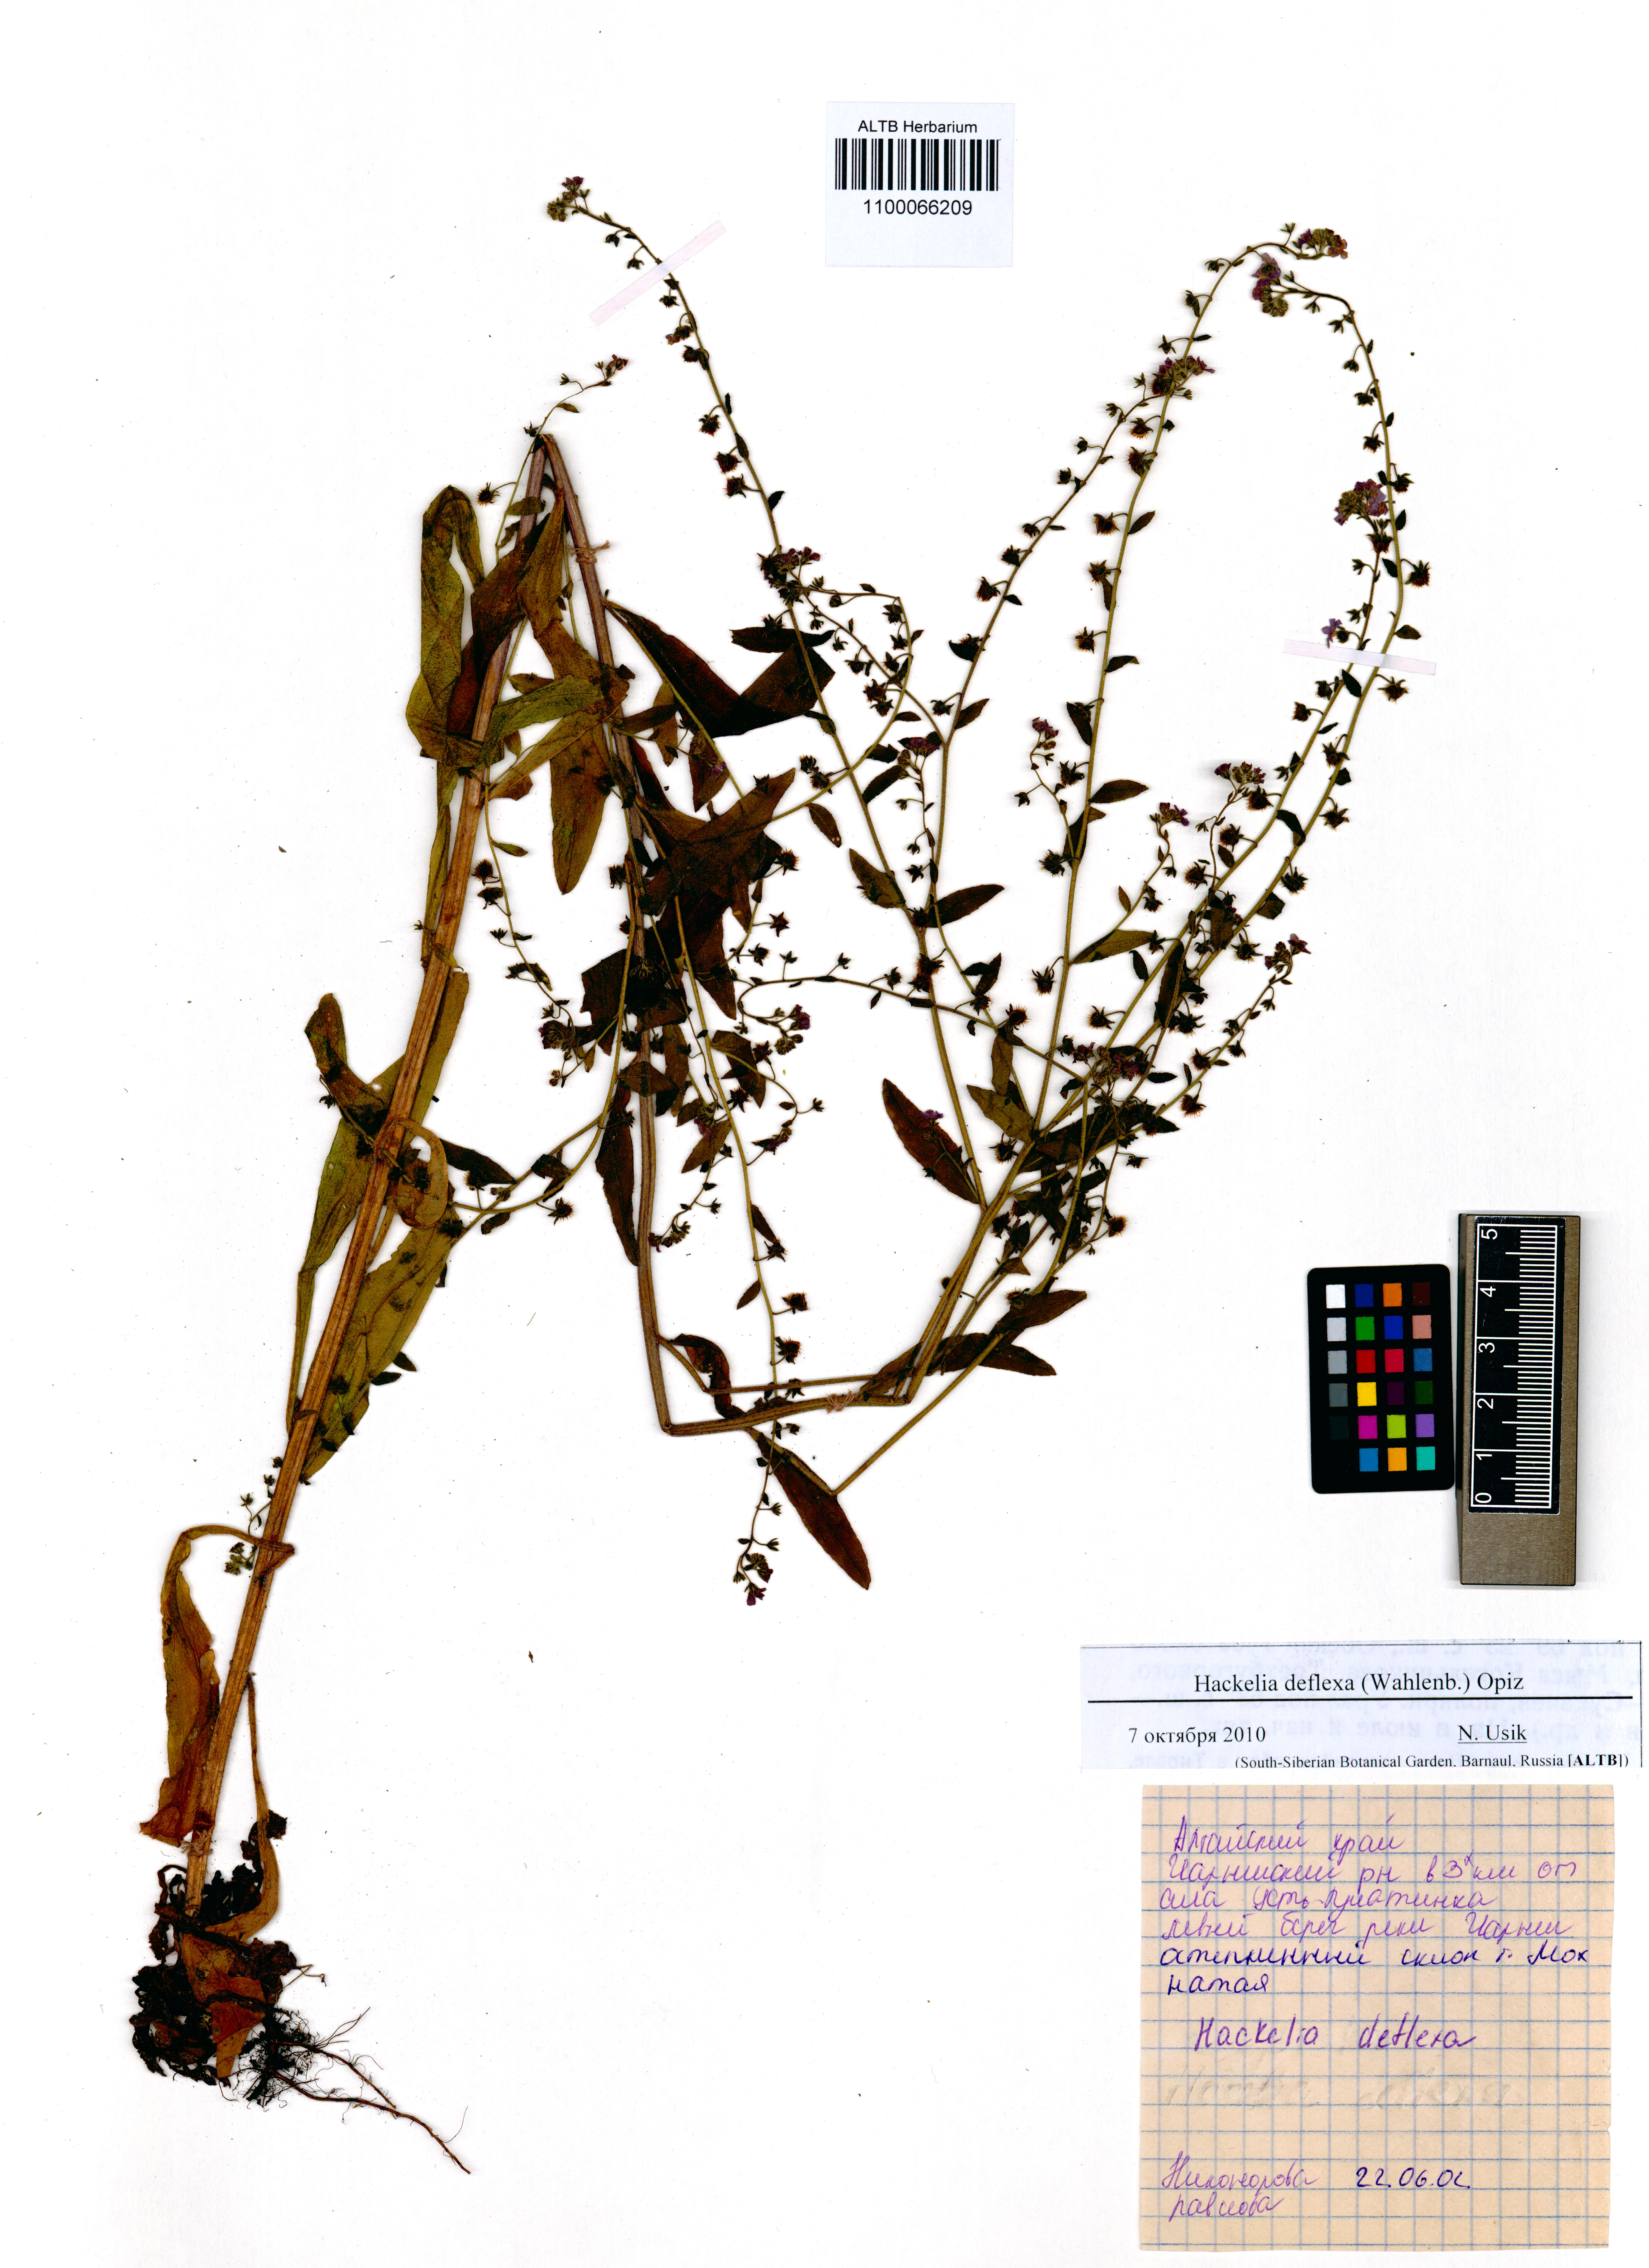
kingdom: Plantae
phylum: Tracheophyta
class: Magnoliopsida
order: Boraginales
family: Boraginaceae
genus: Hackelia
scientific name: Hackelia deflexa
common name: Nodding stickseed
